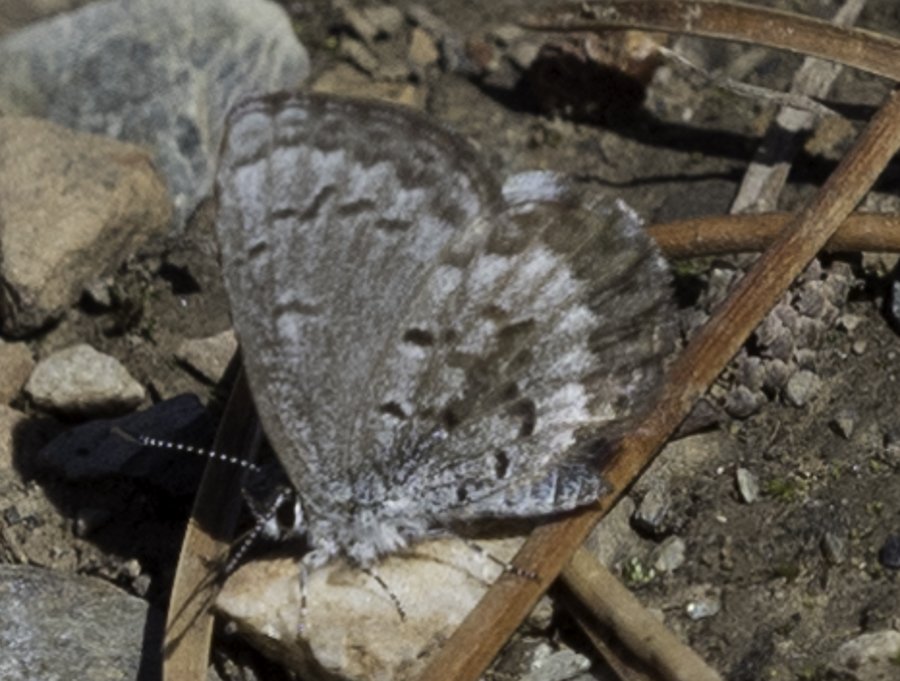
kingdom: Animalia
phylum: Arthropoda
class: Insecta
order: Lepidoptera
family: Lycaenidae
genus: Celastrina
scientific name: Celastrina lucia
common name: Northern Spring Azure
